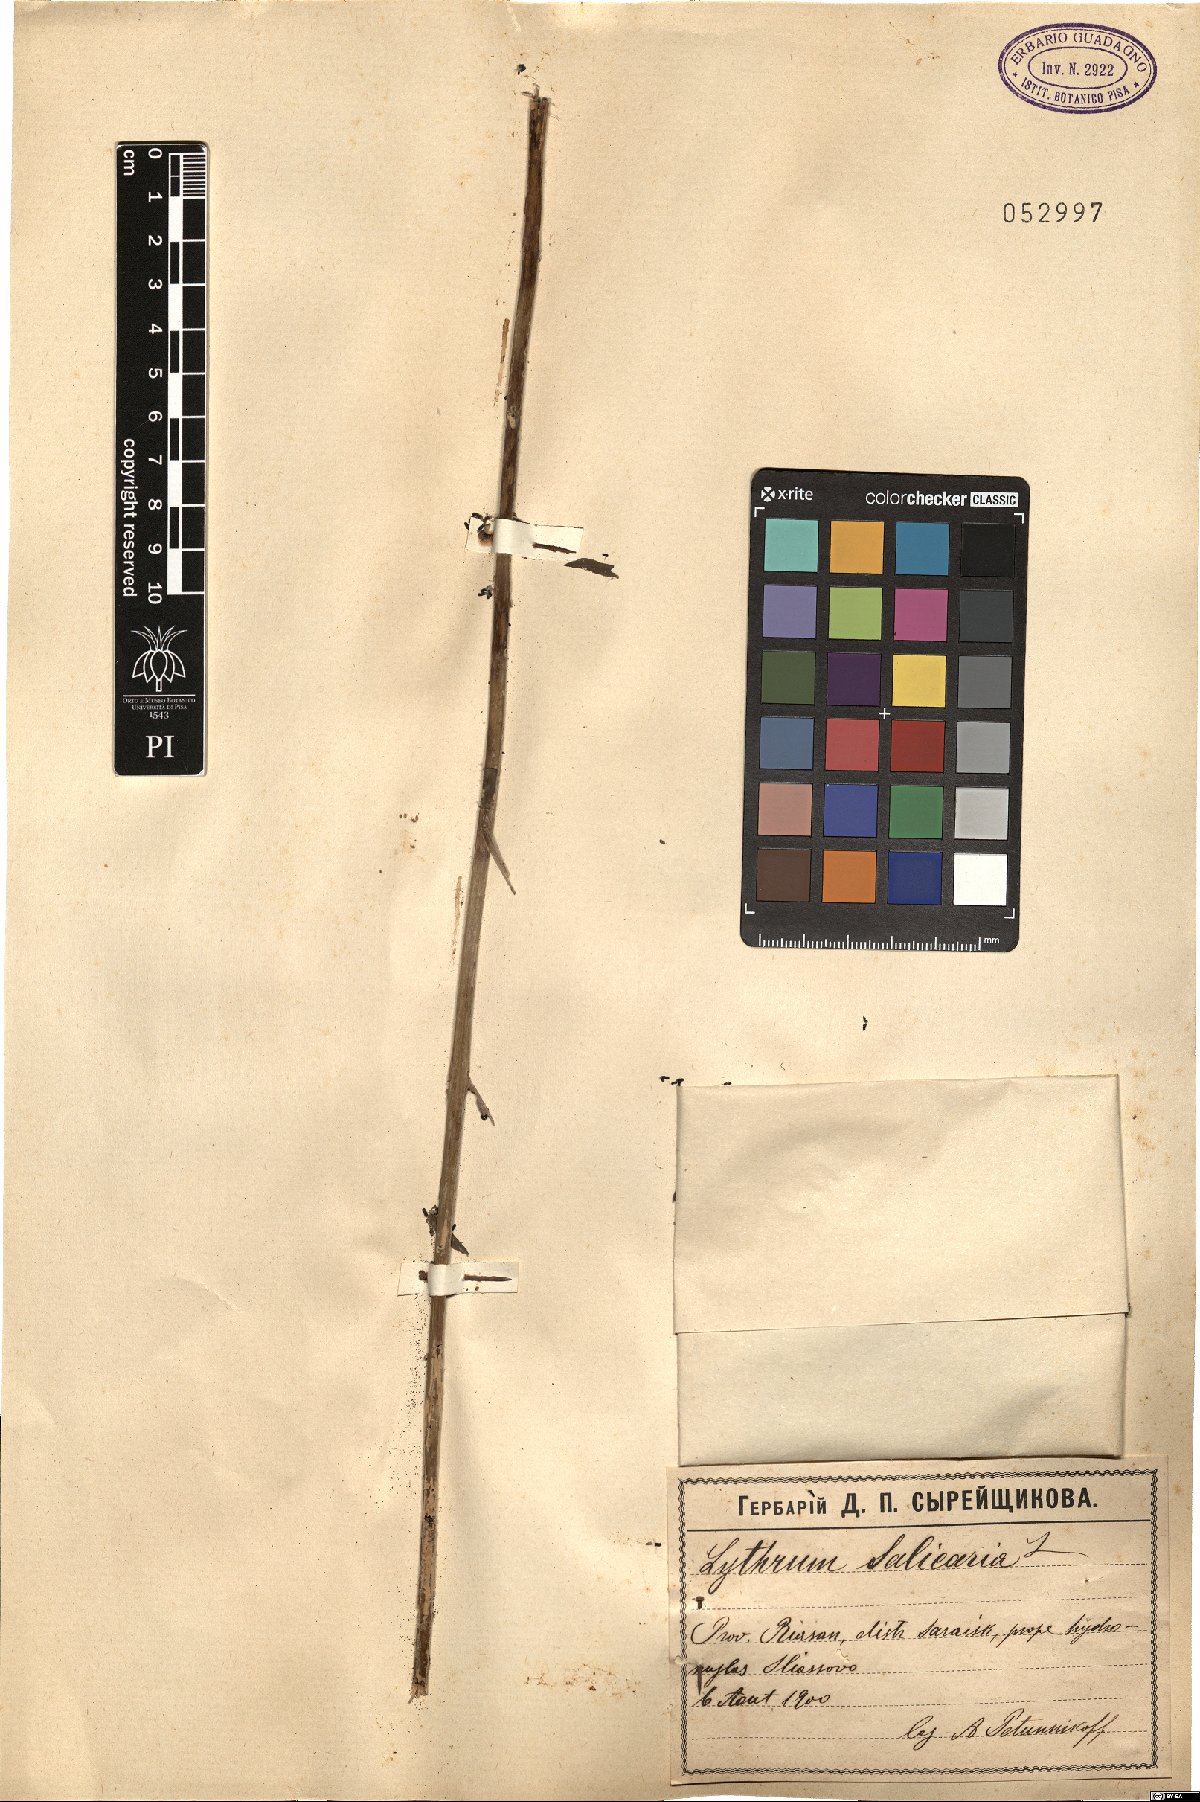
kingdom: Plantae
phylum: Tracheophyta
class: Magnoliopsida
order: Myrtales
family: Lythraceae
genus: Lythrum
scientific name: Lythrum salicaria
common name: Purple loosestrife
